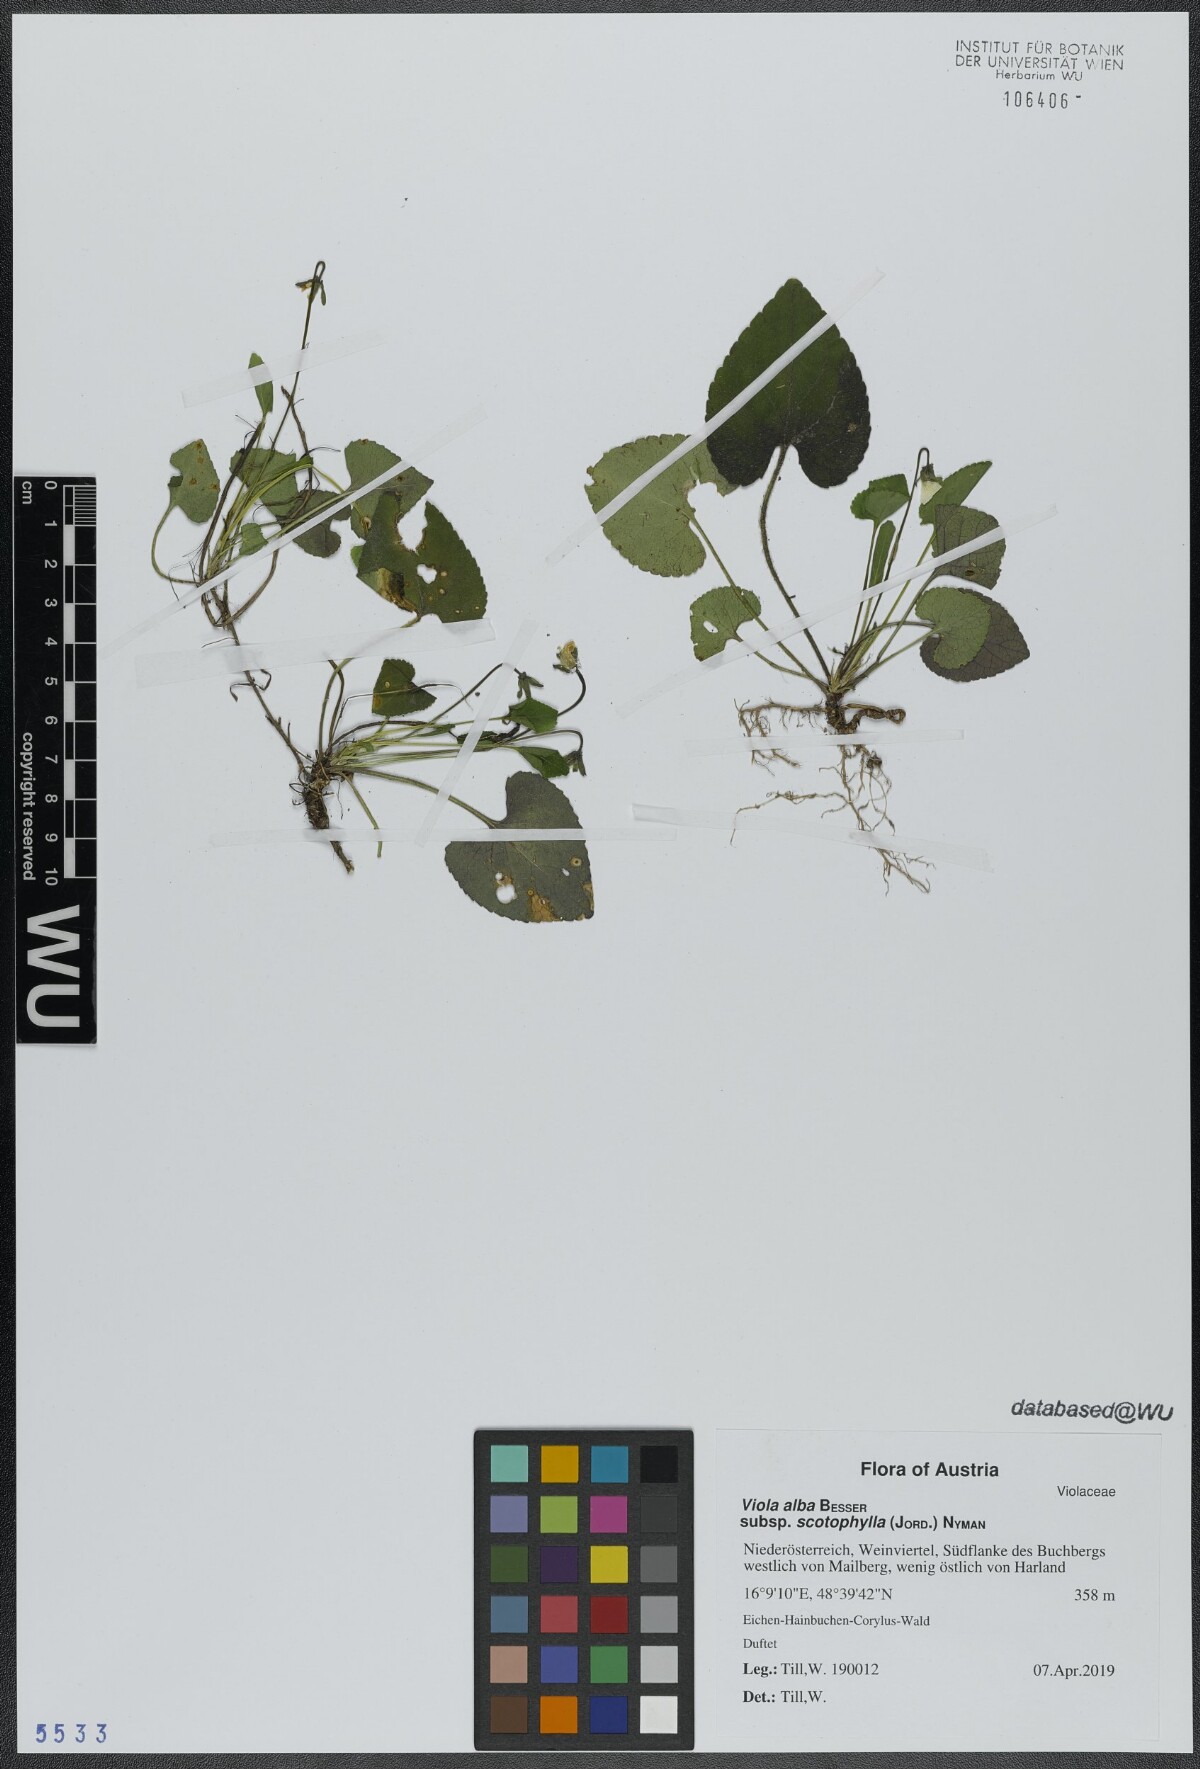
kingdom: Plantae
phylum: Tracheophyta
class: Magnoliopsida
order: Malpighiales
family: Violaceae
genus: Viola
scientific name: Viola alba
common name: White violet
